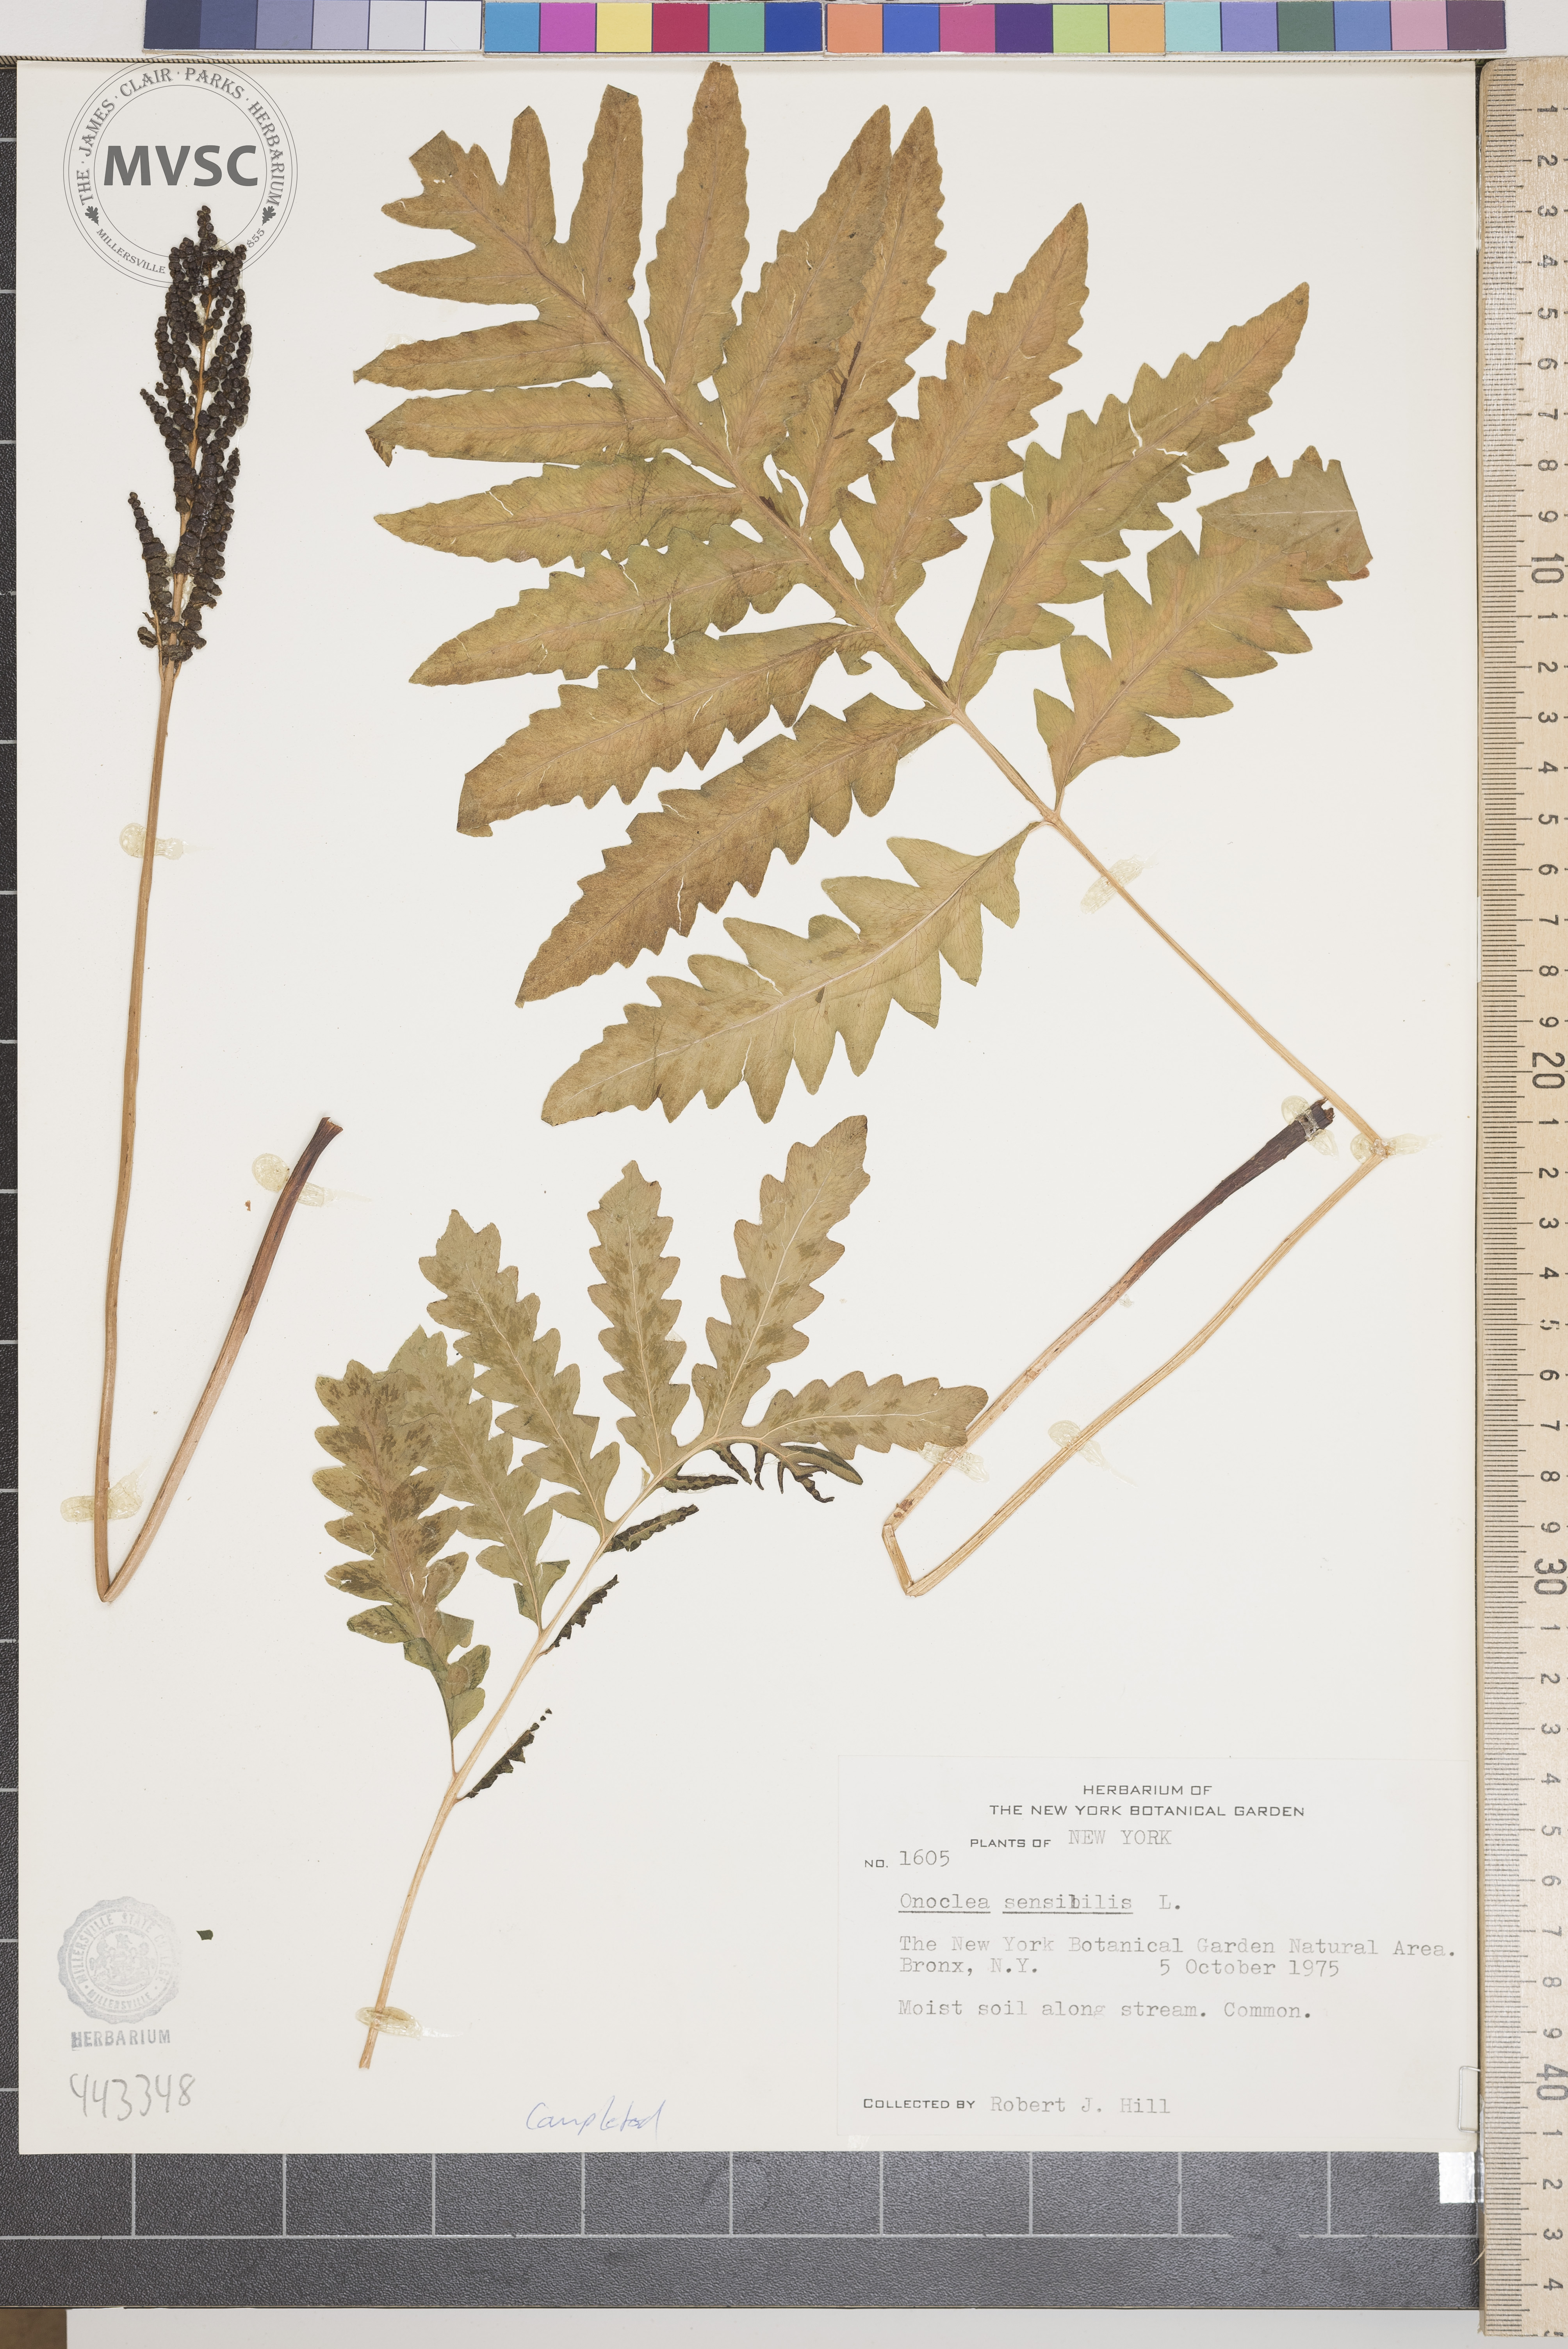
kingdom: Plantae
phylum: Tracheophyta
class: Polypodiopsida
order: Polypodiales
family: Onocleaceae
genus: Onoclea
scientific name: Onoclea sensibilis
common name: Sensitive fern
